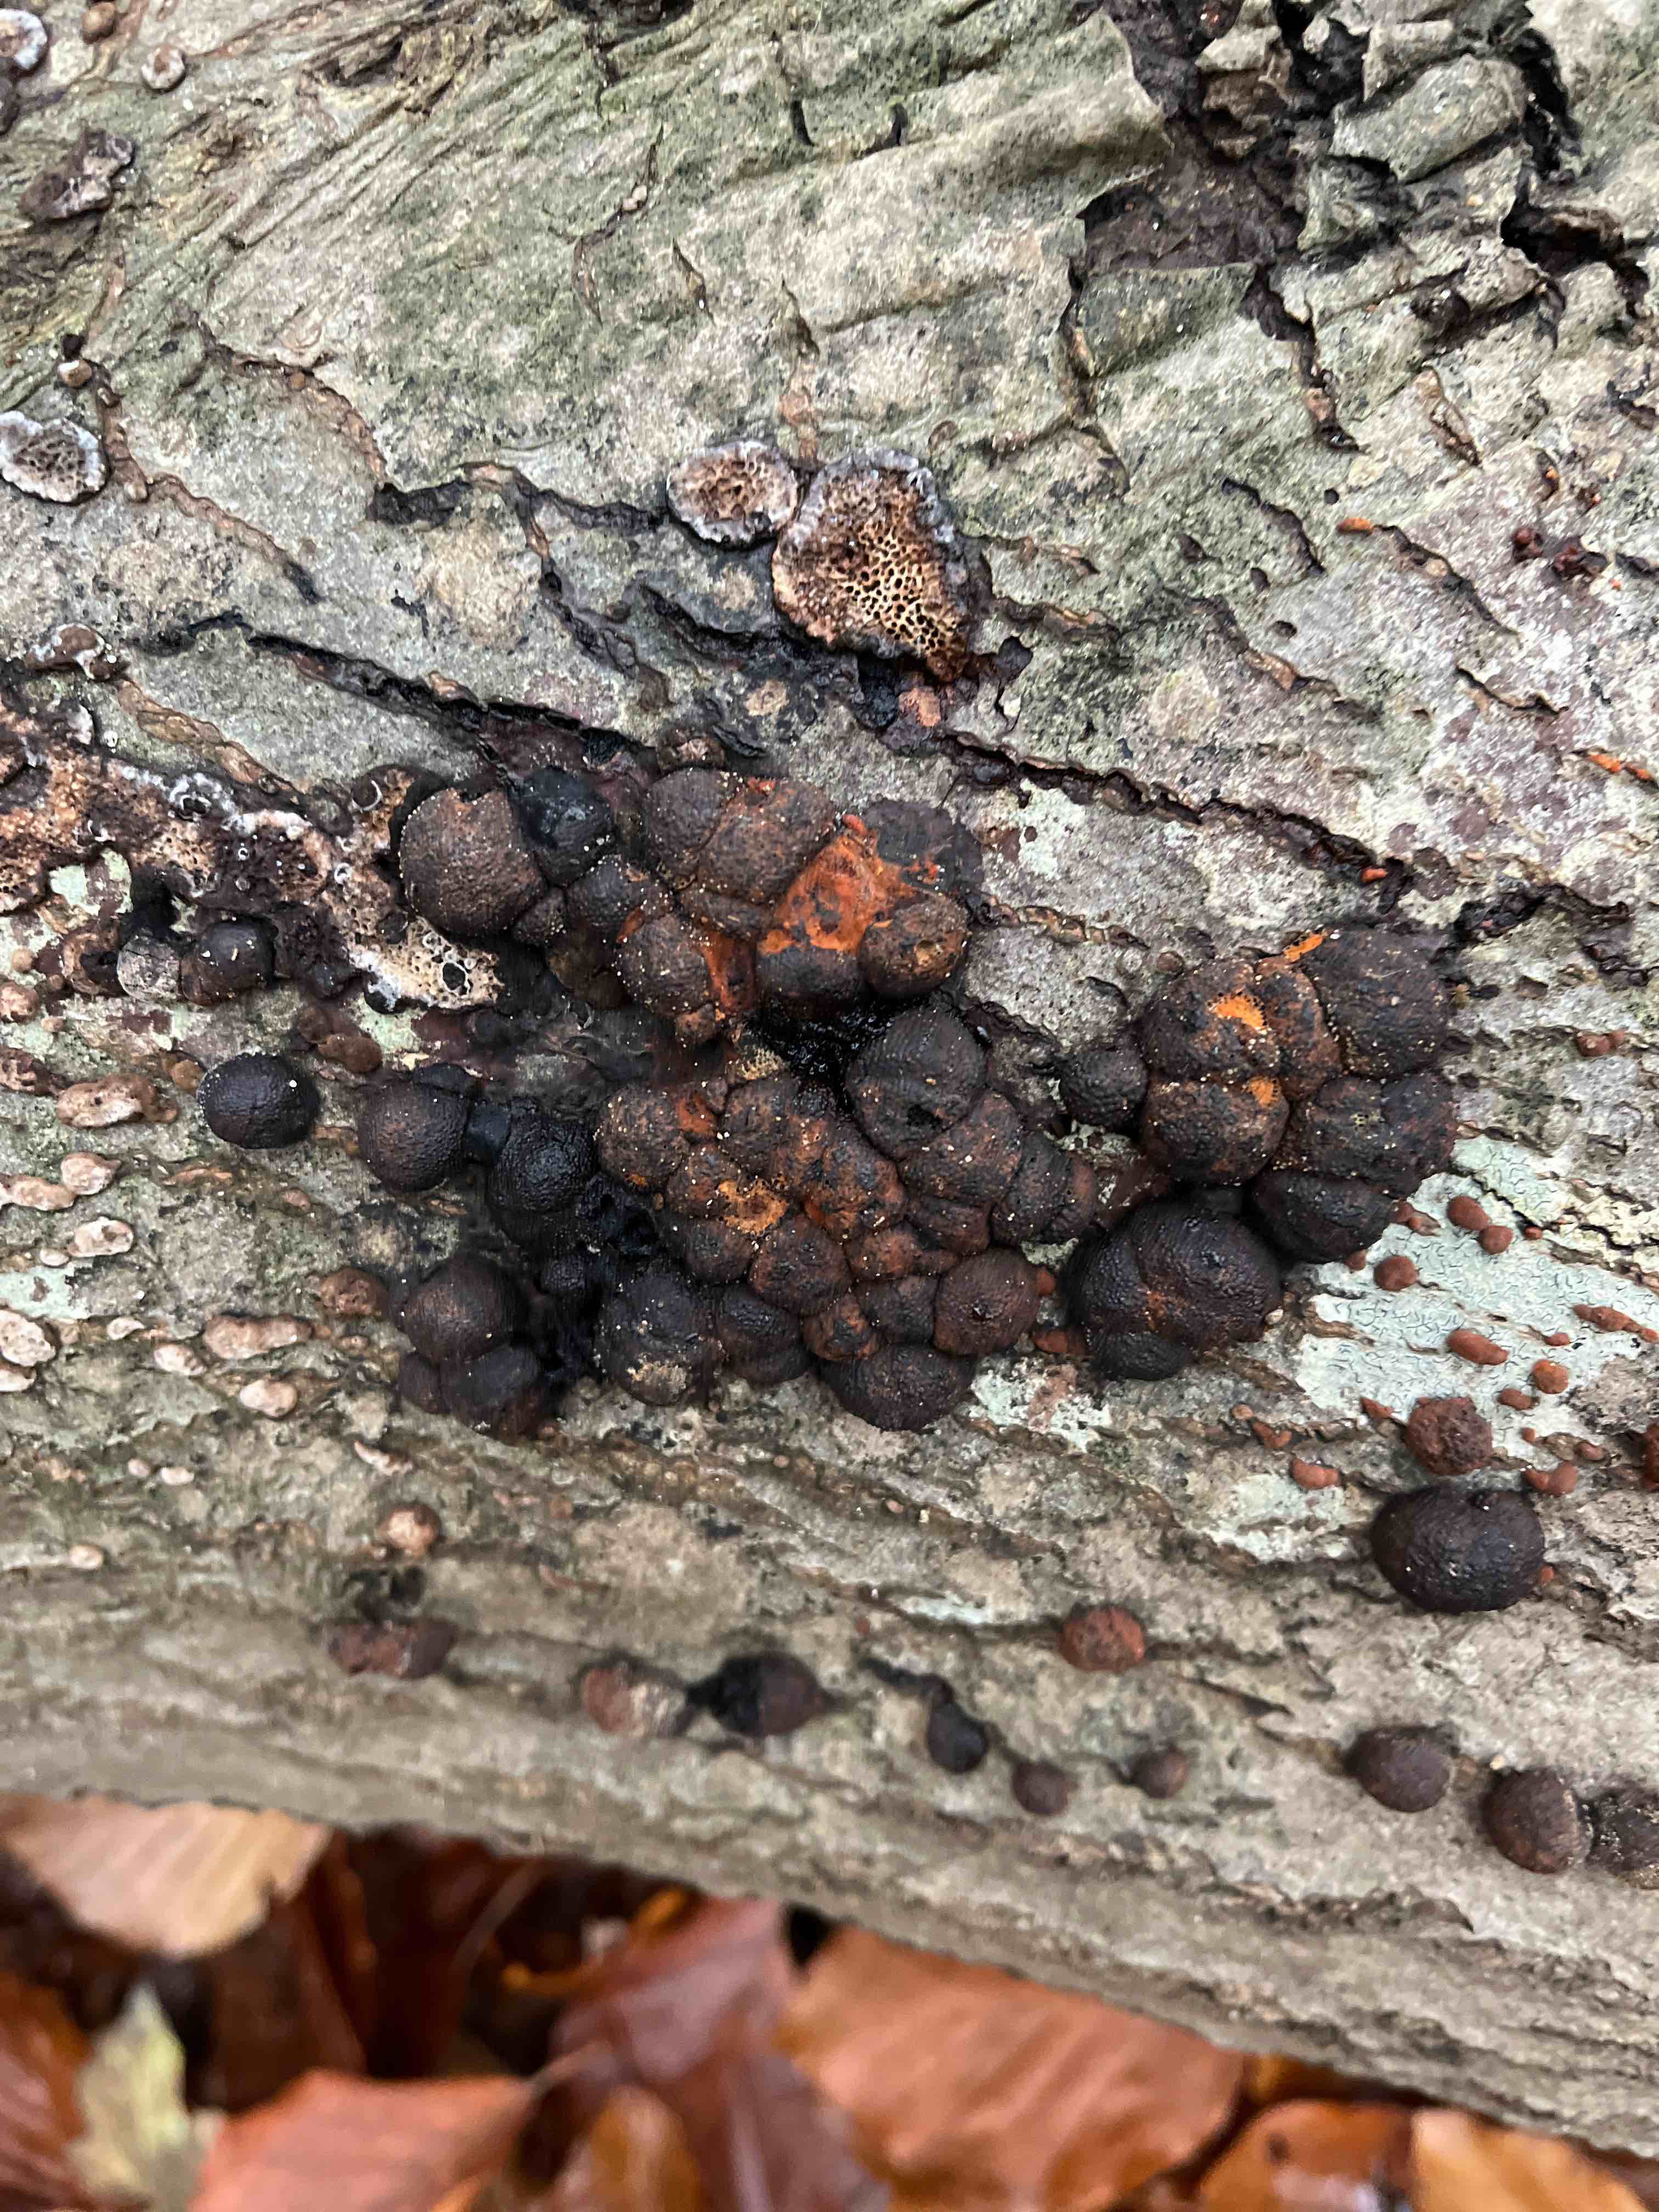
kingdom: Fungi
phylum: Ascomycota
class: Sordariomycetes
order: Xylariales
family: Hypoxylaceae
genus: Hypoxylon
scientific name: Hypoxylon fragiforme
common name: kuljordbær
